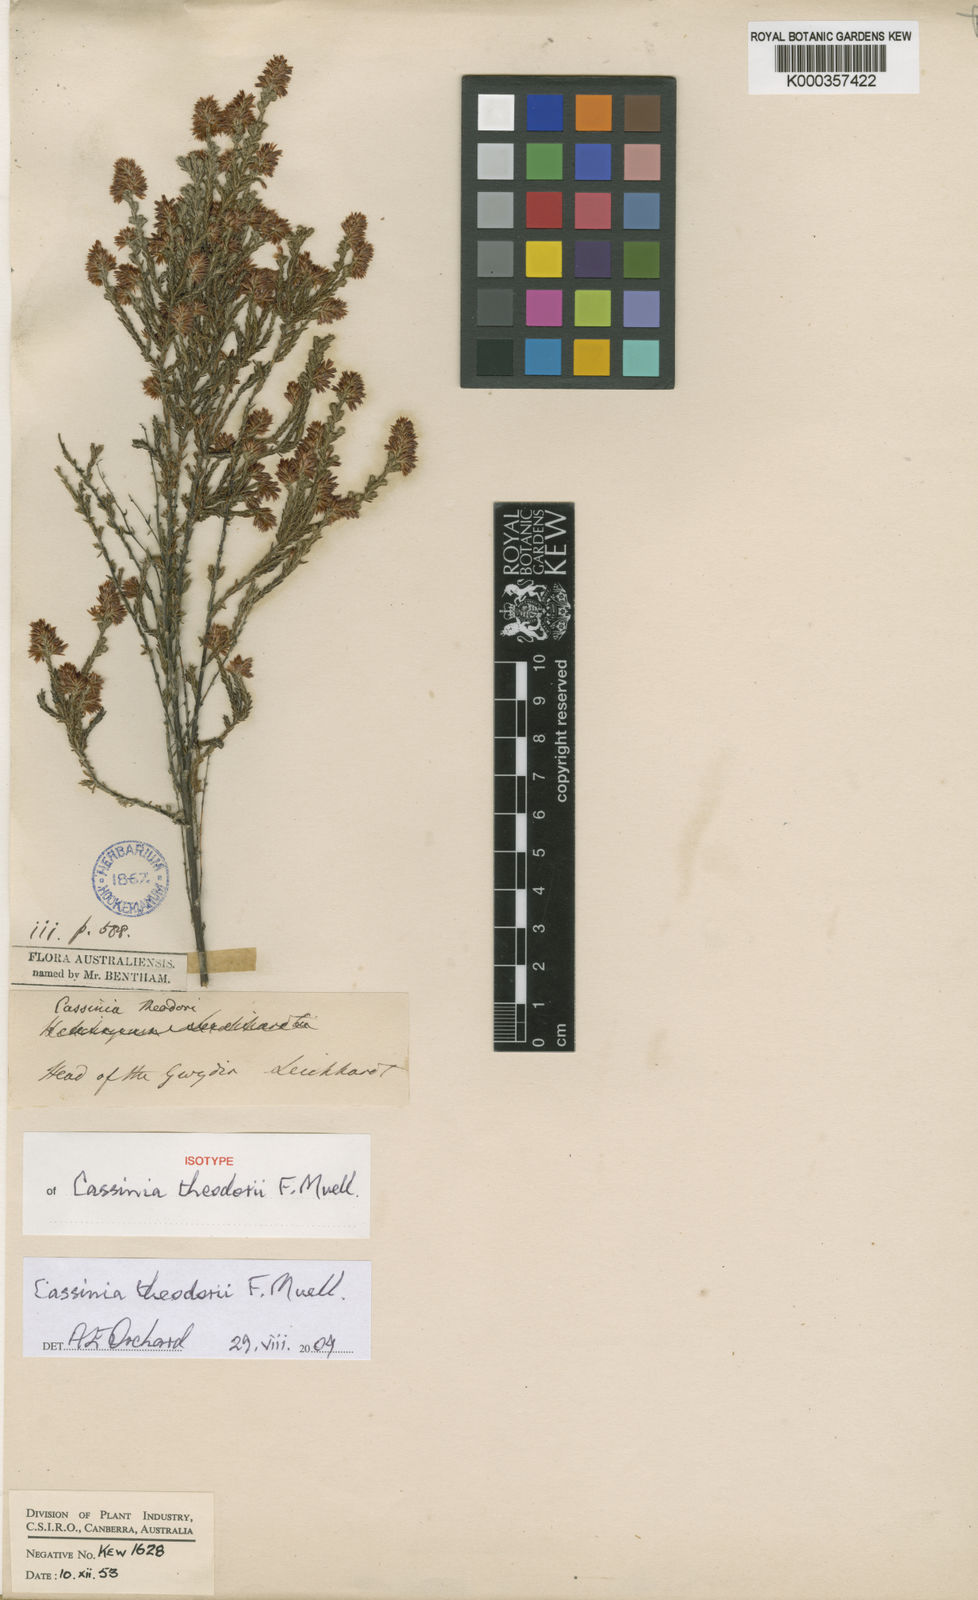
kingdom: Plantae
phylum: Tracheophyta
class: Magnoliopsida
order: Asterales
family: Asteraceae
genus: Cassinia
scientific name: Cassinia theodori
